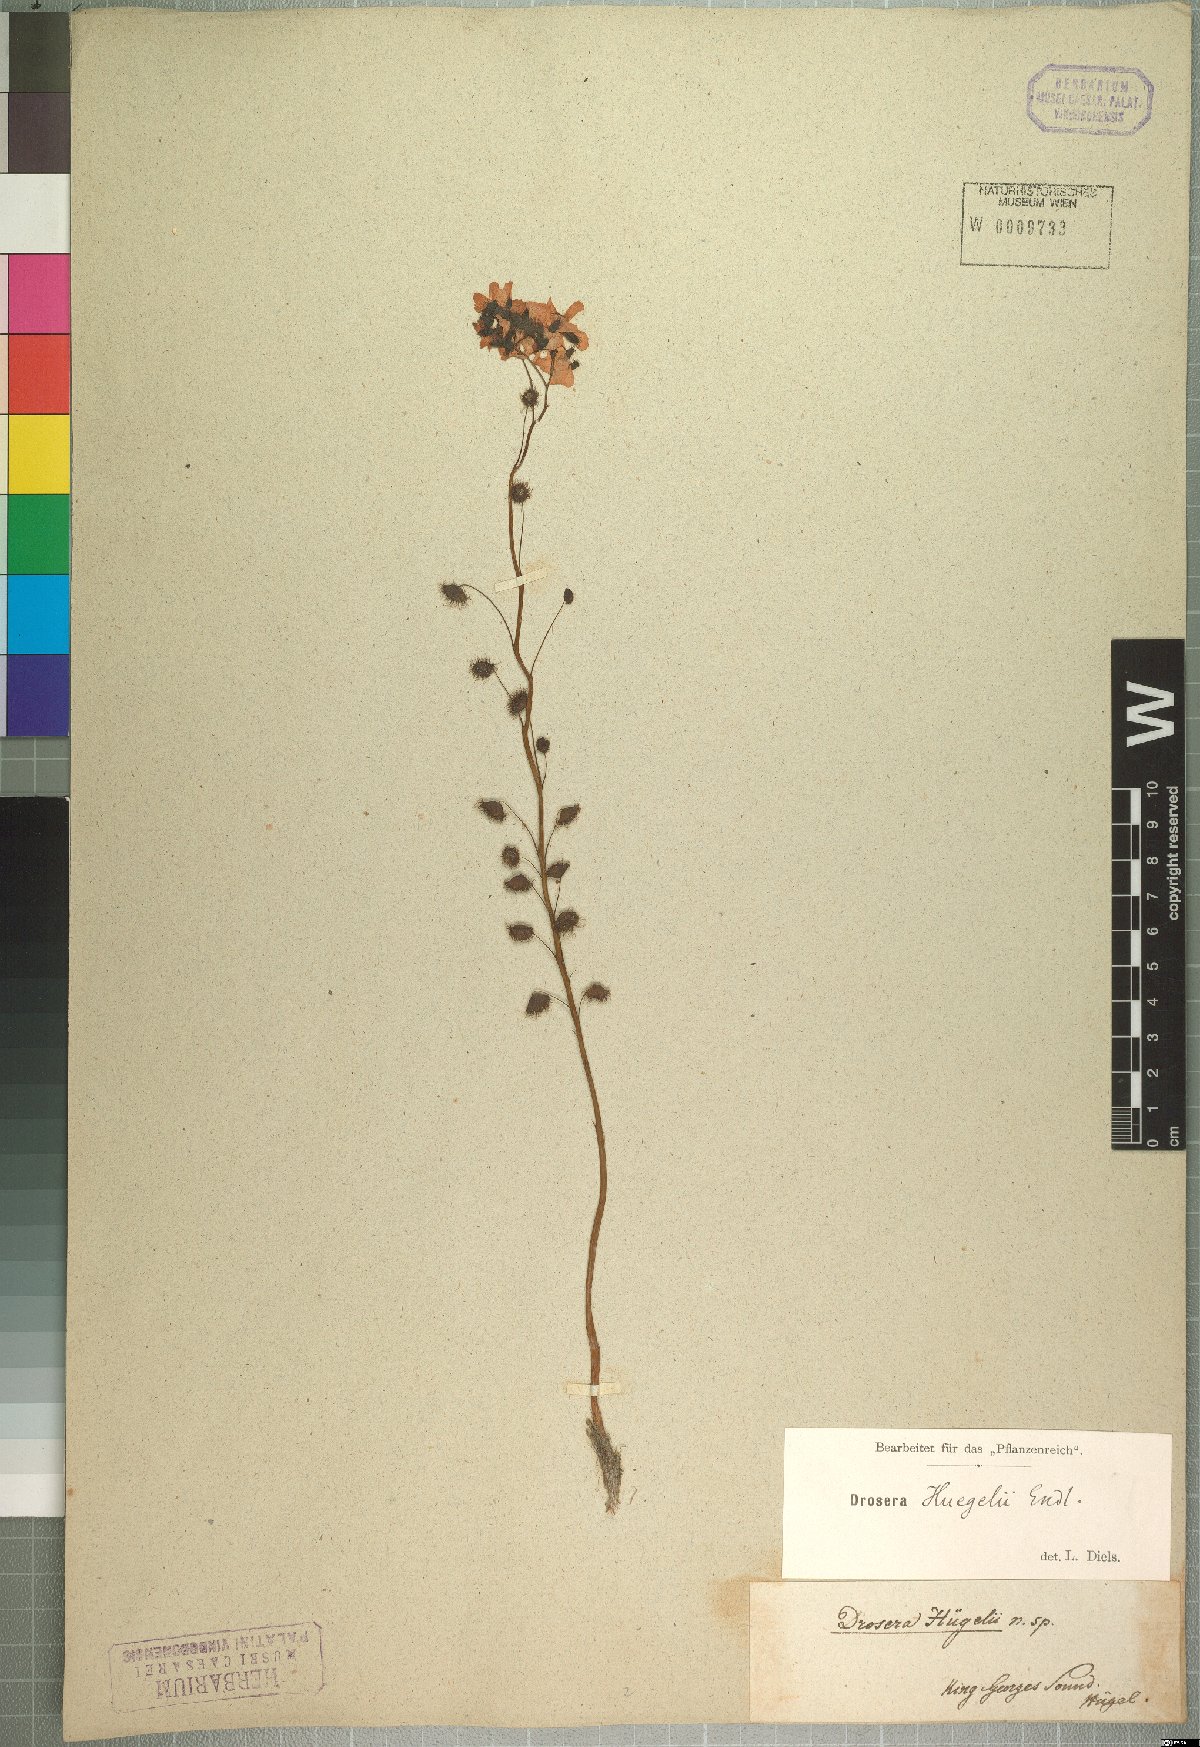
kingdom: Plantae
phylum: Tracheophyta
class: Magnoliopsida
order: Caryophyllales
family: Droseraceae
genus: Drosera
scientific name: Drosera huegelii
